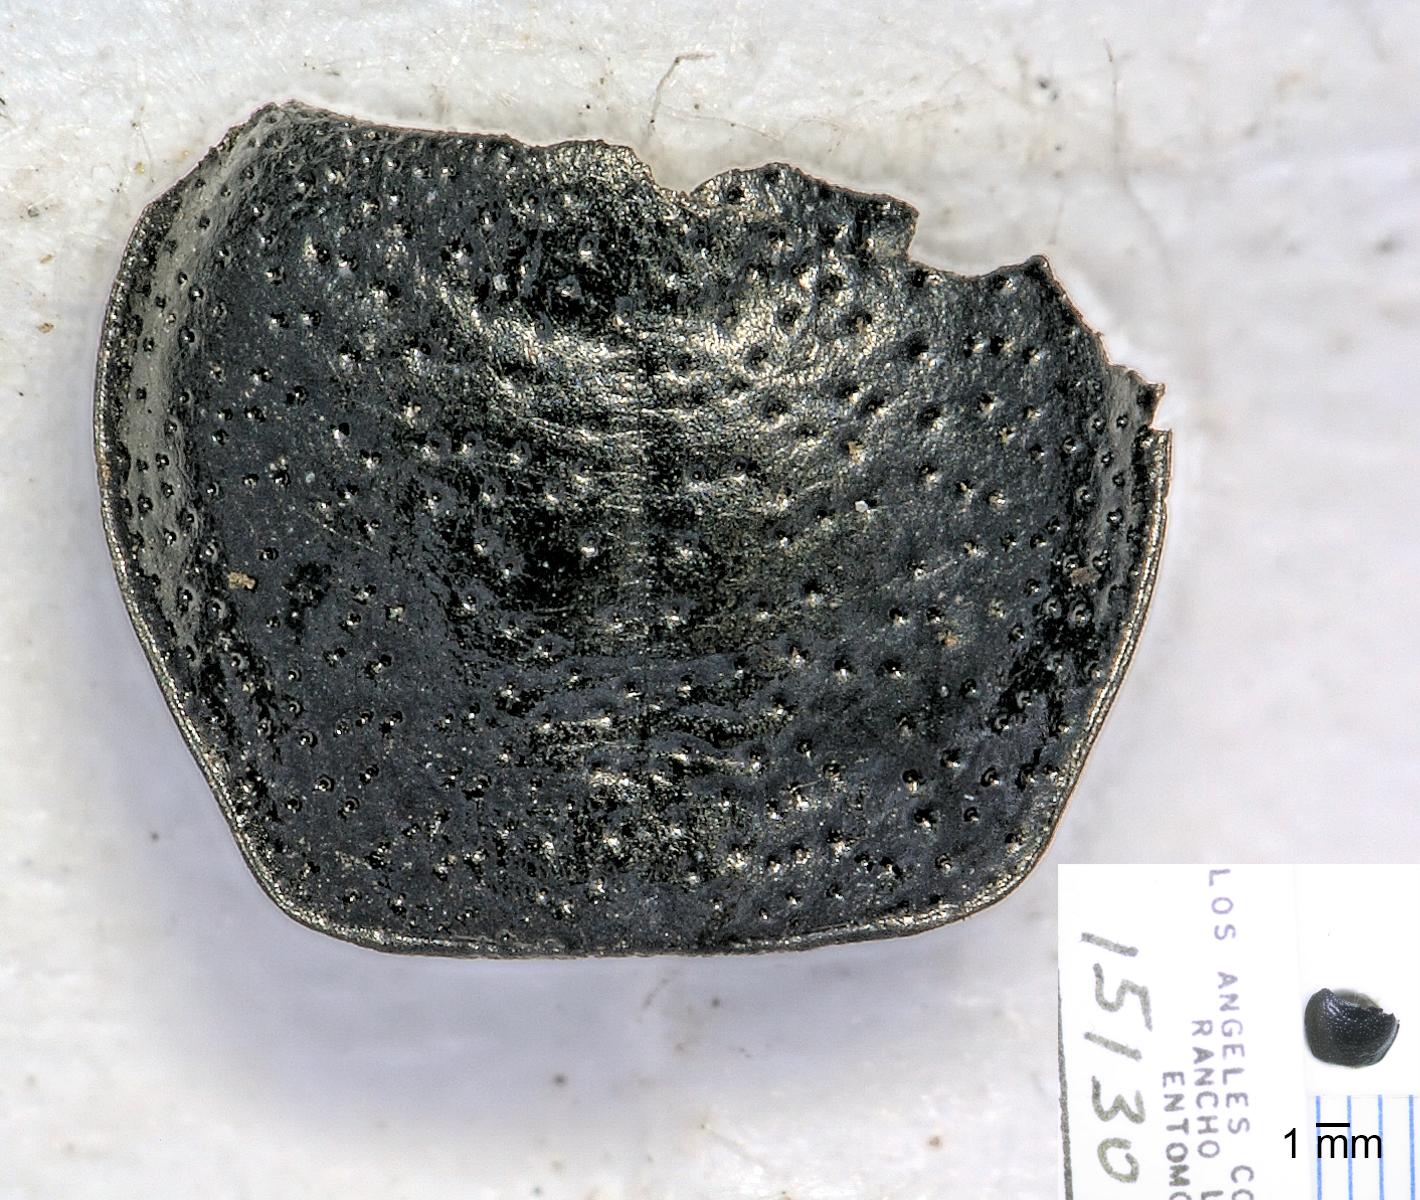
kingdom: Animalia
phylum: Arthropoda
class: Insecta
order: Coleoptera
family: Carabidae
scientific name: Carabidae
